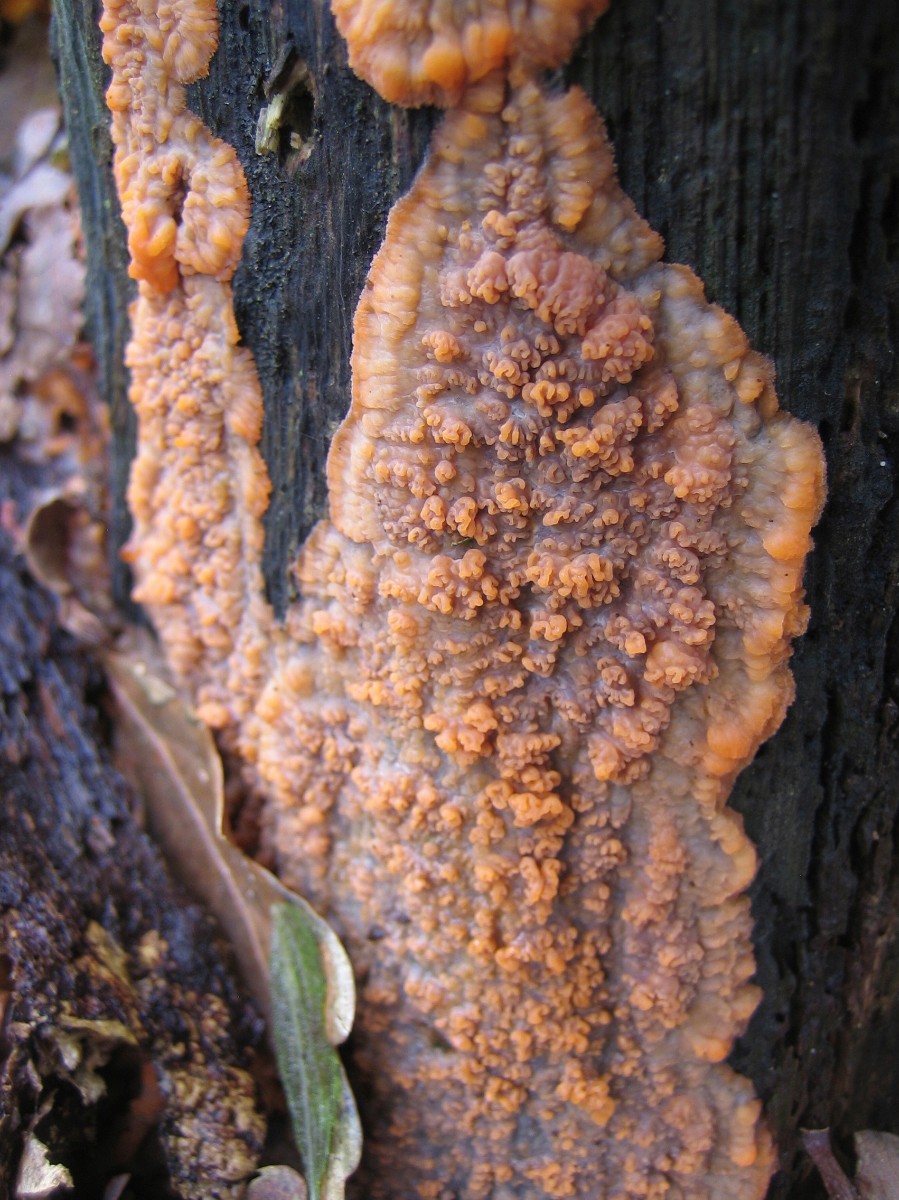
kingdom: Fungi
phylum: Basidiomycota
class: Agaricomycetes
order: Polyporales
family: Meruliaceae
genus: Phlebia
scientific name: Phlebia radiata
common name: stråle-åresvamp
